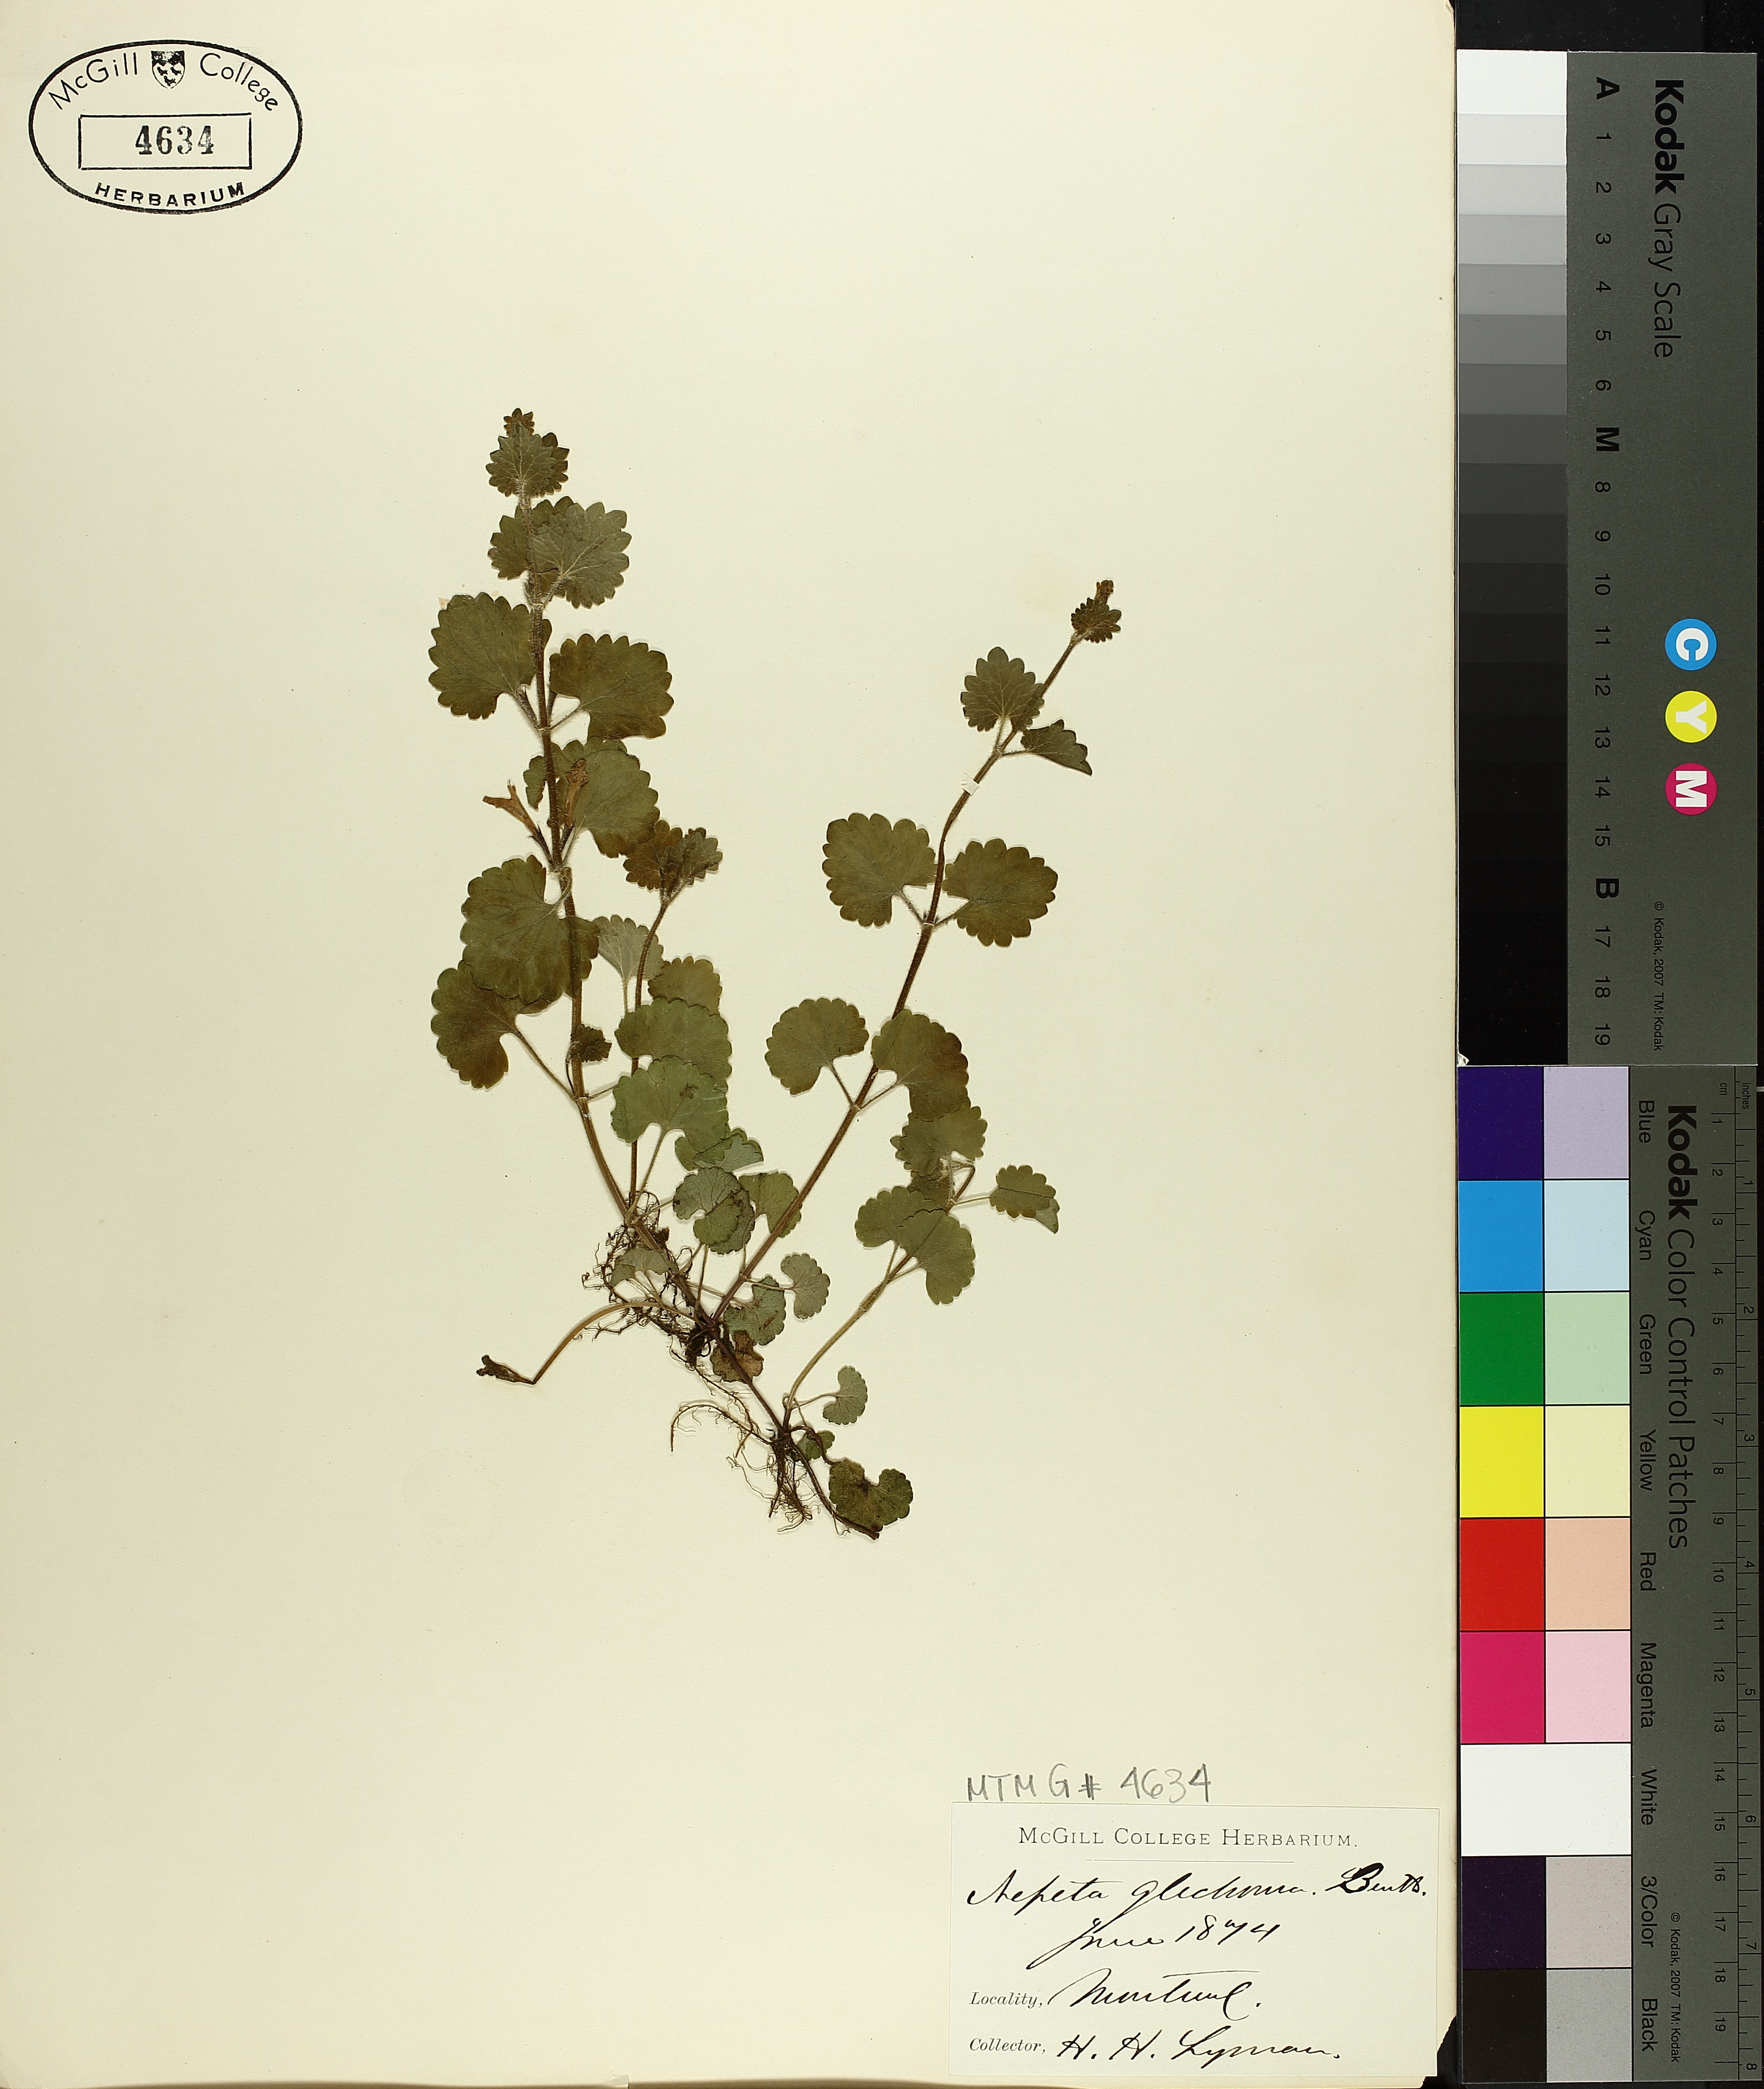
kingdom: Plantae
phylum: Tracheophyta
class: Magnoliopsida
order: Lamiales
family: Lamiaceae
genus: Glechoma
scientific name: Glechoma hederacea
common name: Ground ivy
